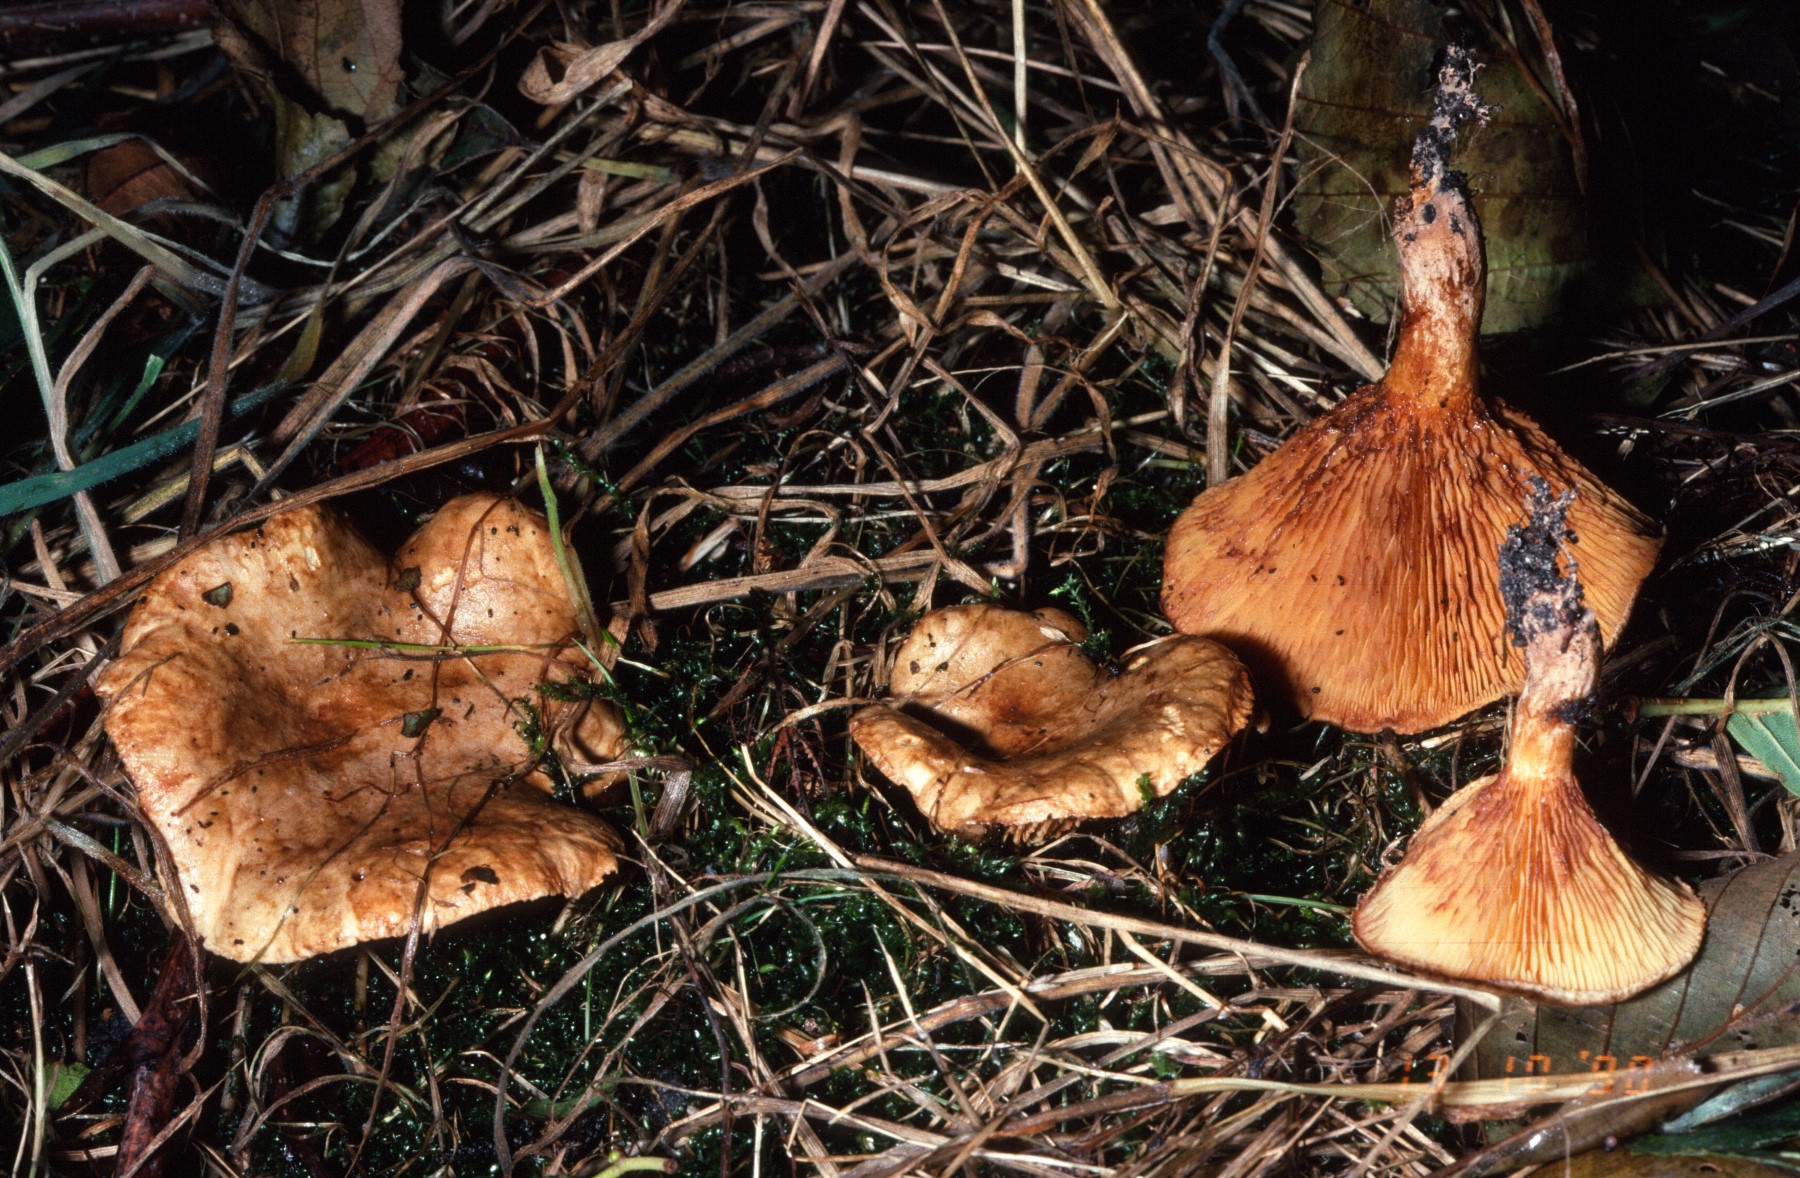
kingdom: Fungi
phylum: Basidiomycota
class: Agaricomycetes
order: Boletales
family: Paxillaceae
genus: Paxillus
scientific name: Paxillus rubicundulus
